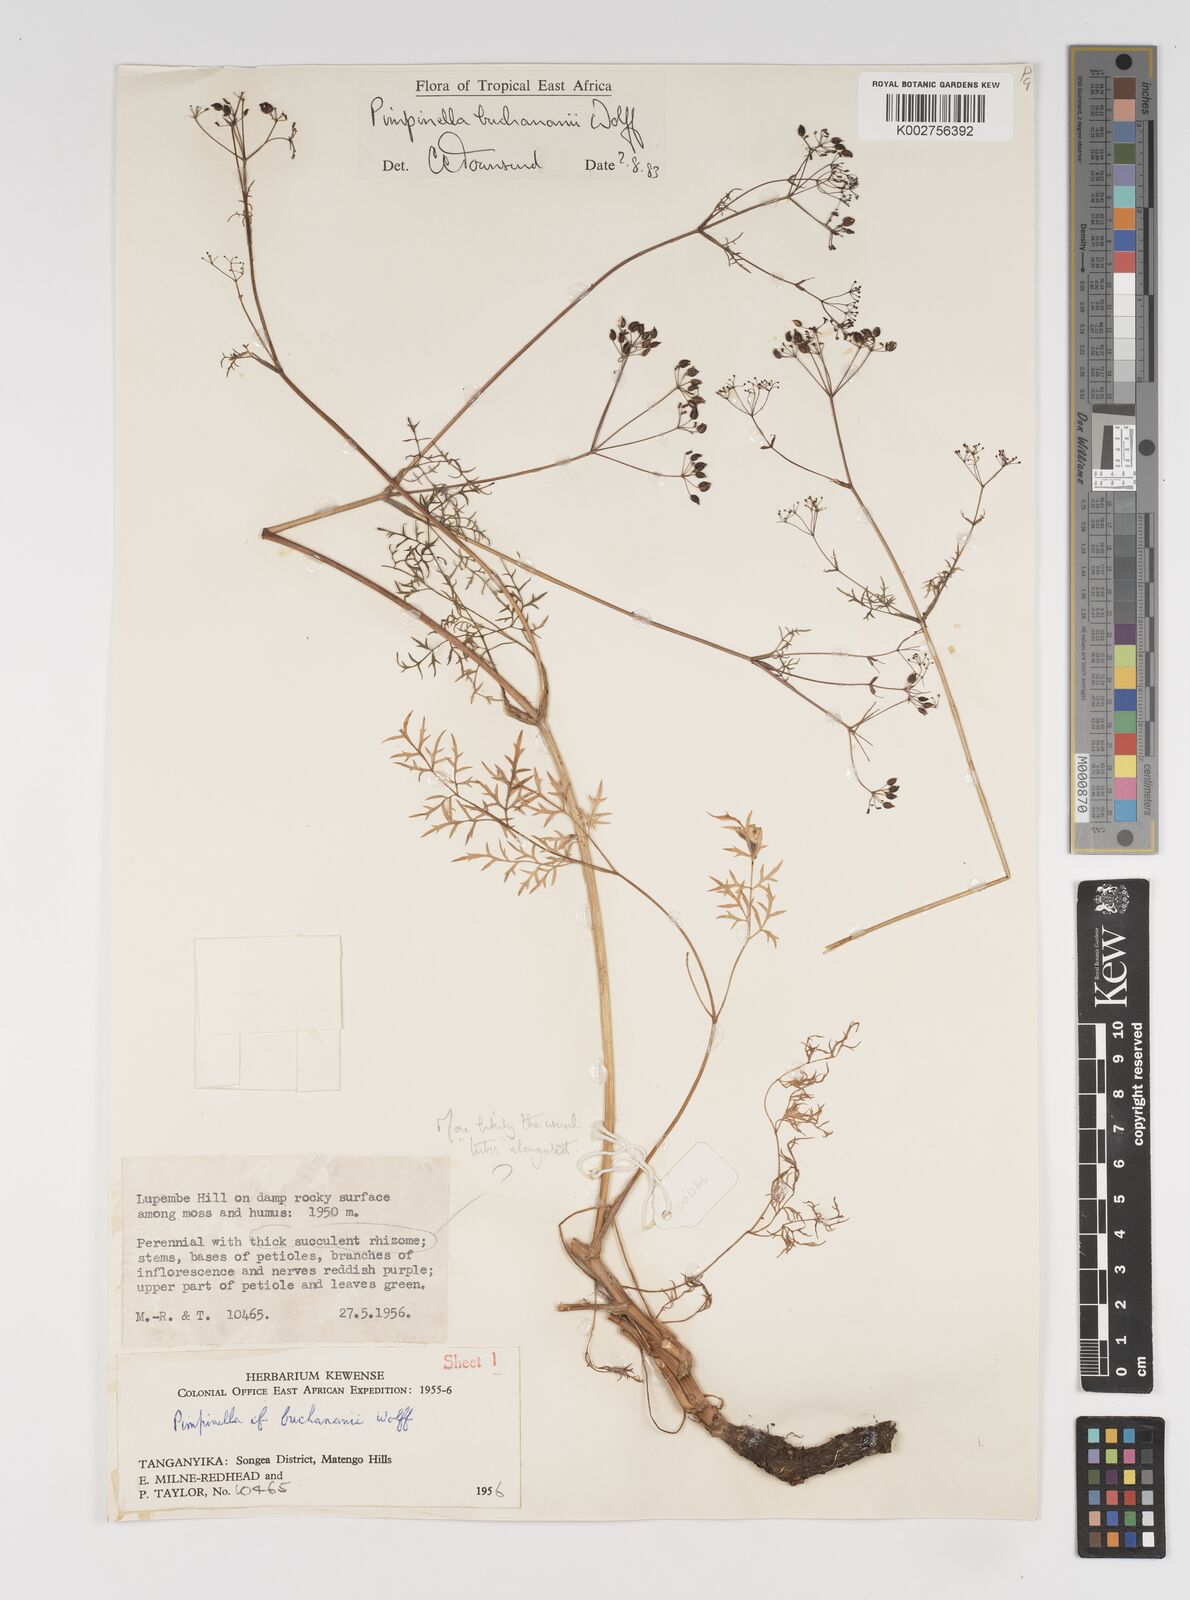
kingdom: Plantae
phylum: Tracheophyta
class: Magnoliopsida
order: Apiales
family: Apiaceae
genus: Pimpinella
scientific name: Pimpinella buchananii
